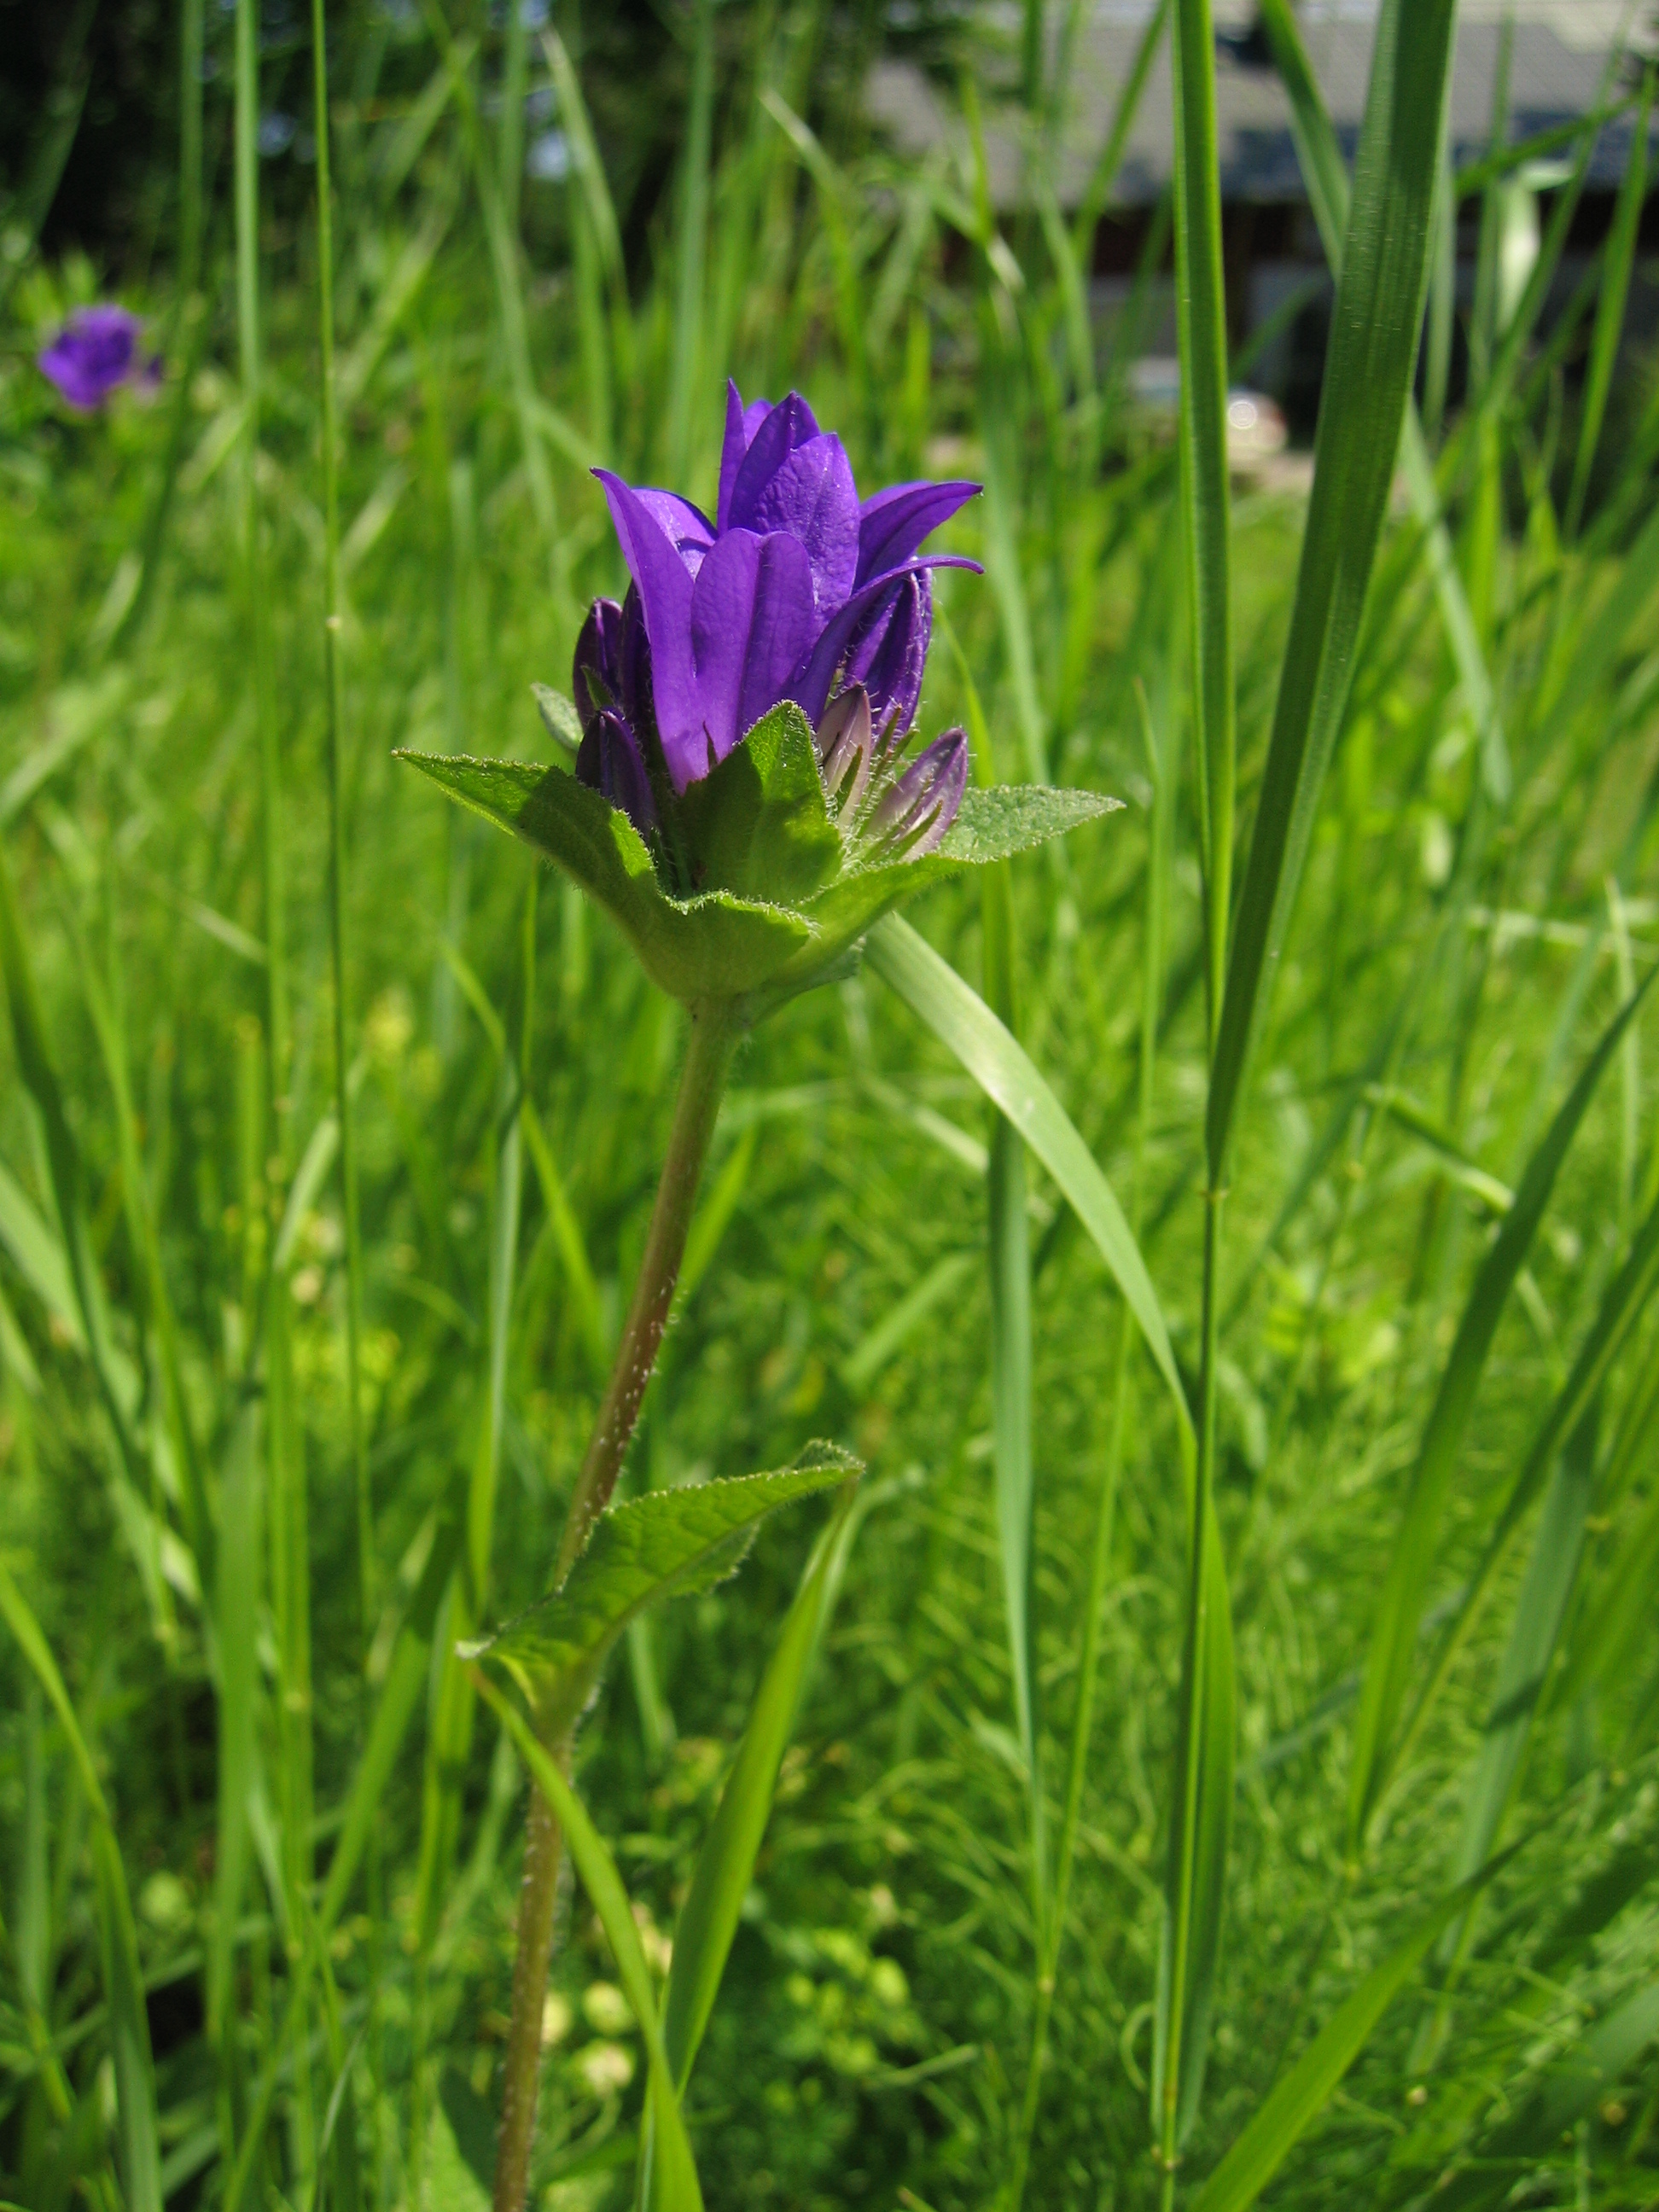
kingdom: Plantae
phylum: Tracheophyta
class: Magnoliopsida
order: Asterales
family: Campanulaceae
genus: Campanula
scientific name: Campanula glomerata
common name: Clustered bellflower
